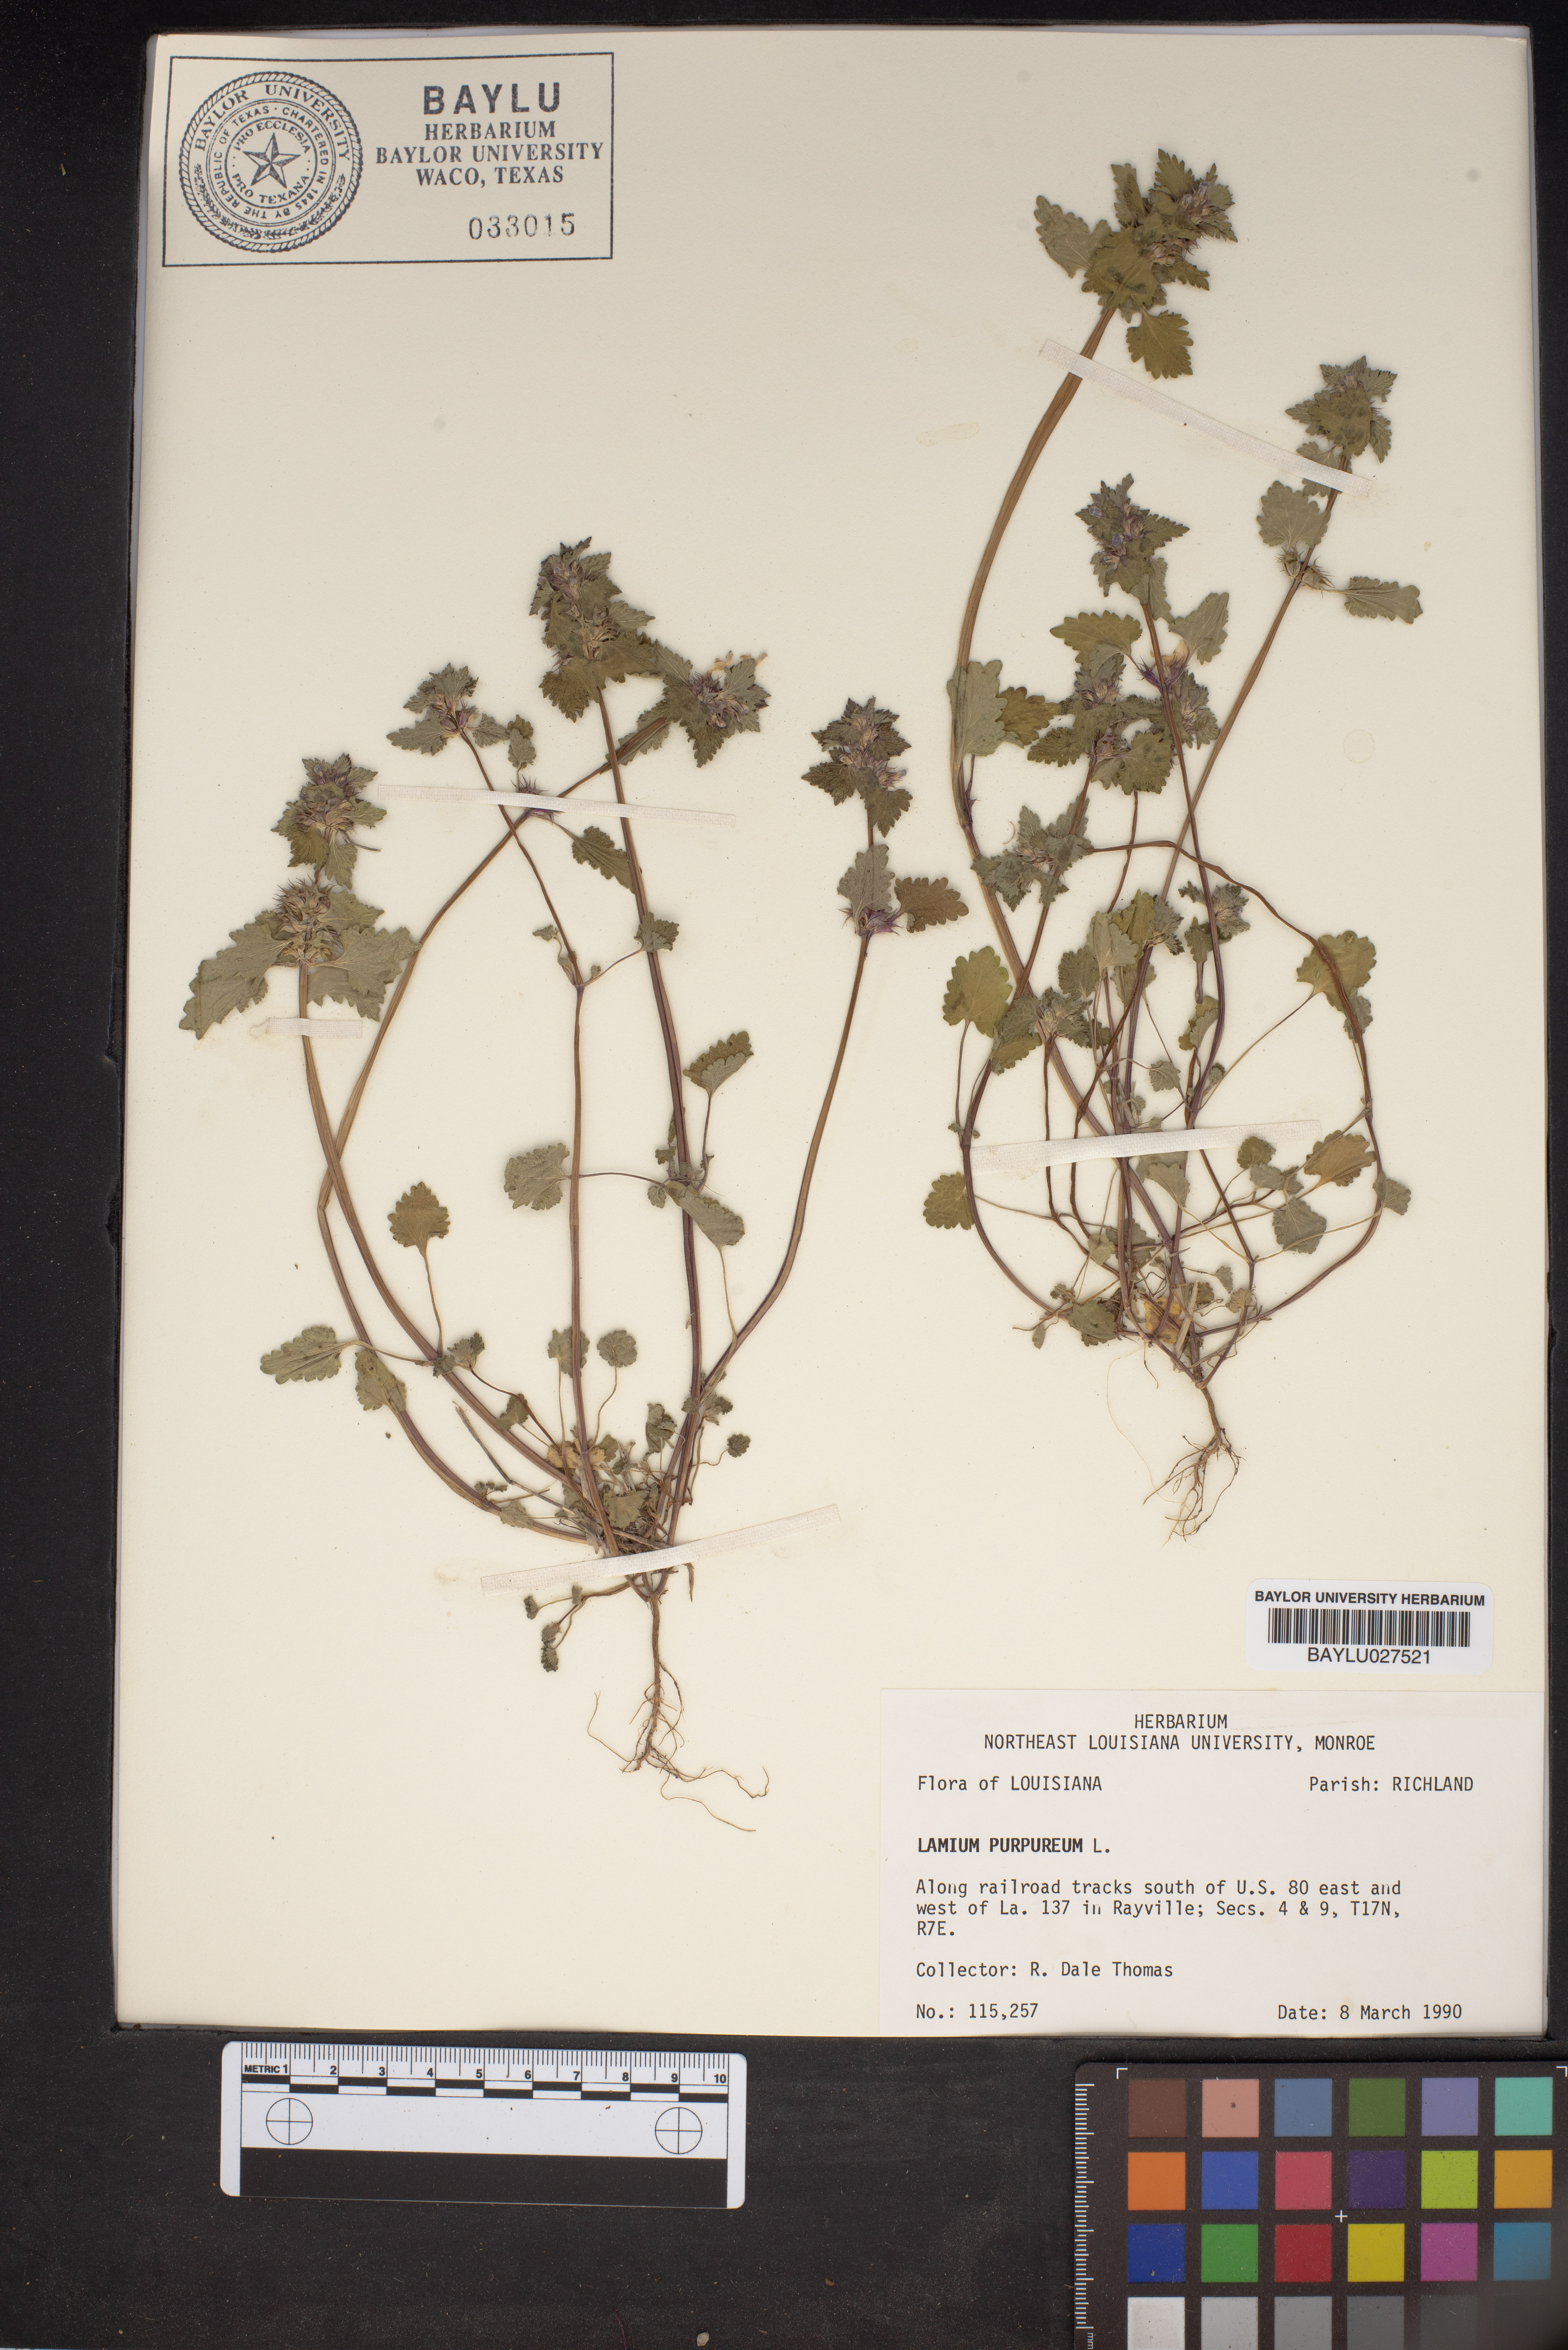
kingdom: Plantae
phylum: Tracheophyta
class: Magnoliopsida
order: Lamiales
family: Lamiaceae
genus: Lamium
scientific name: Lamium purpureum
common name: Red dead-nettle
